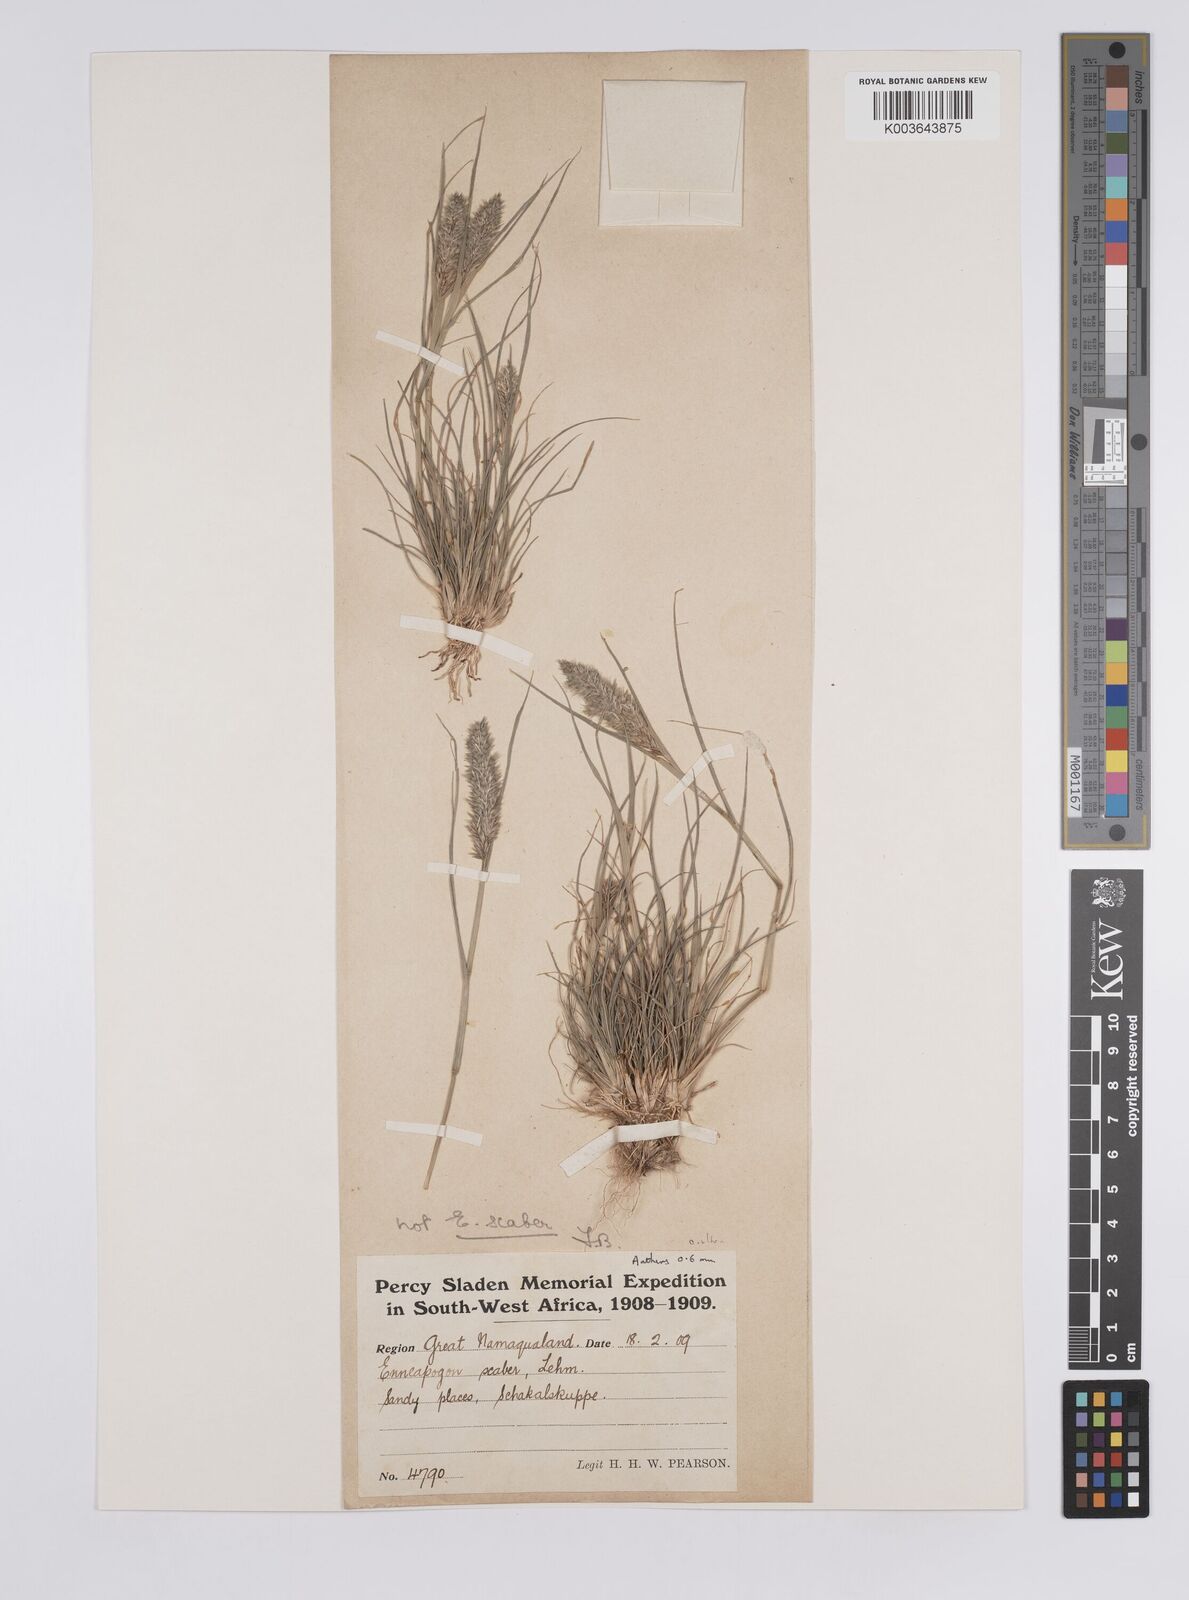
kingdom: Plantae
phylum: Tracheophyta
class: Liliopsida
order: Poales
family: Poaceae
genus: Enneapogon
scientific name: Enneapogon desvauxii
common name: Feather pappus grass
